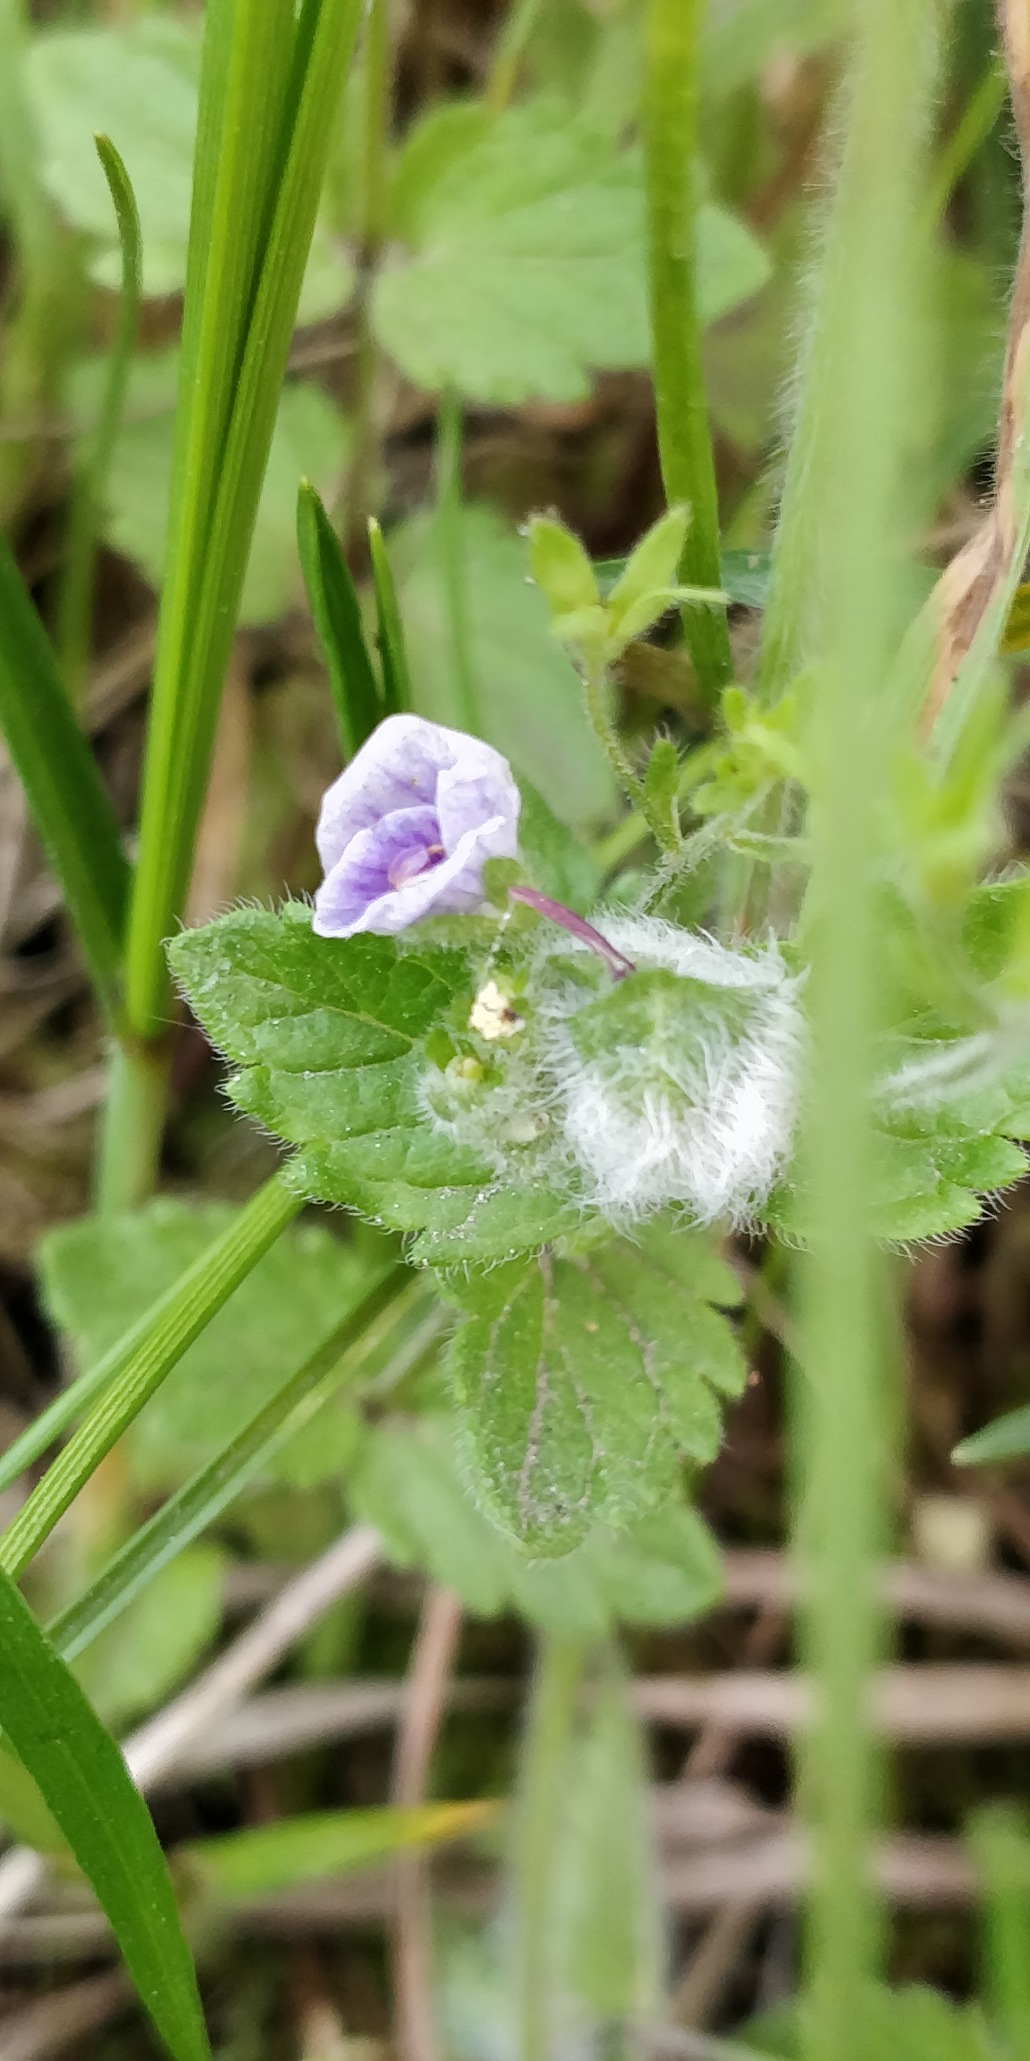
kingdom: Animalia
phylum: Arthropoda
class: Insecta
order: Diptera
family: Cecidomyiidae
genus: Jaapiella
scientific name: Jaapiella veronicae
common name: Ærenprisgalmyg
